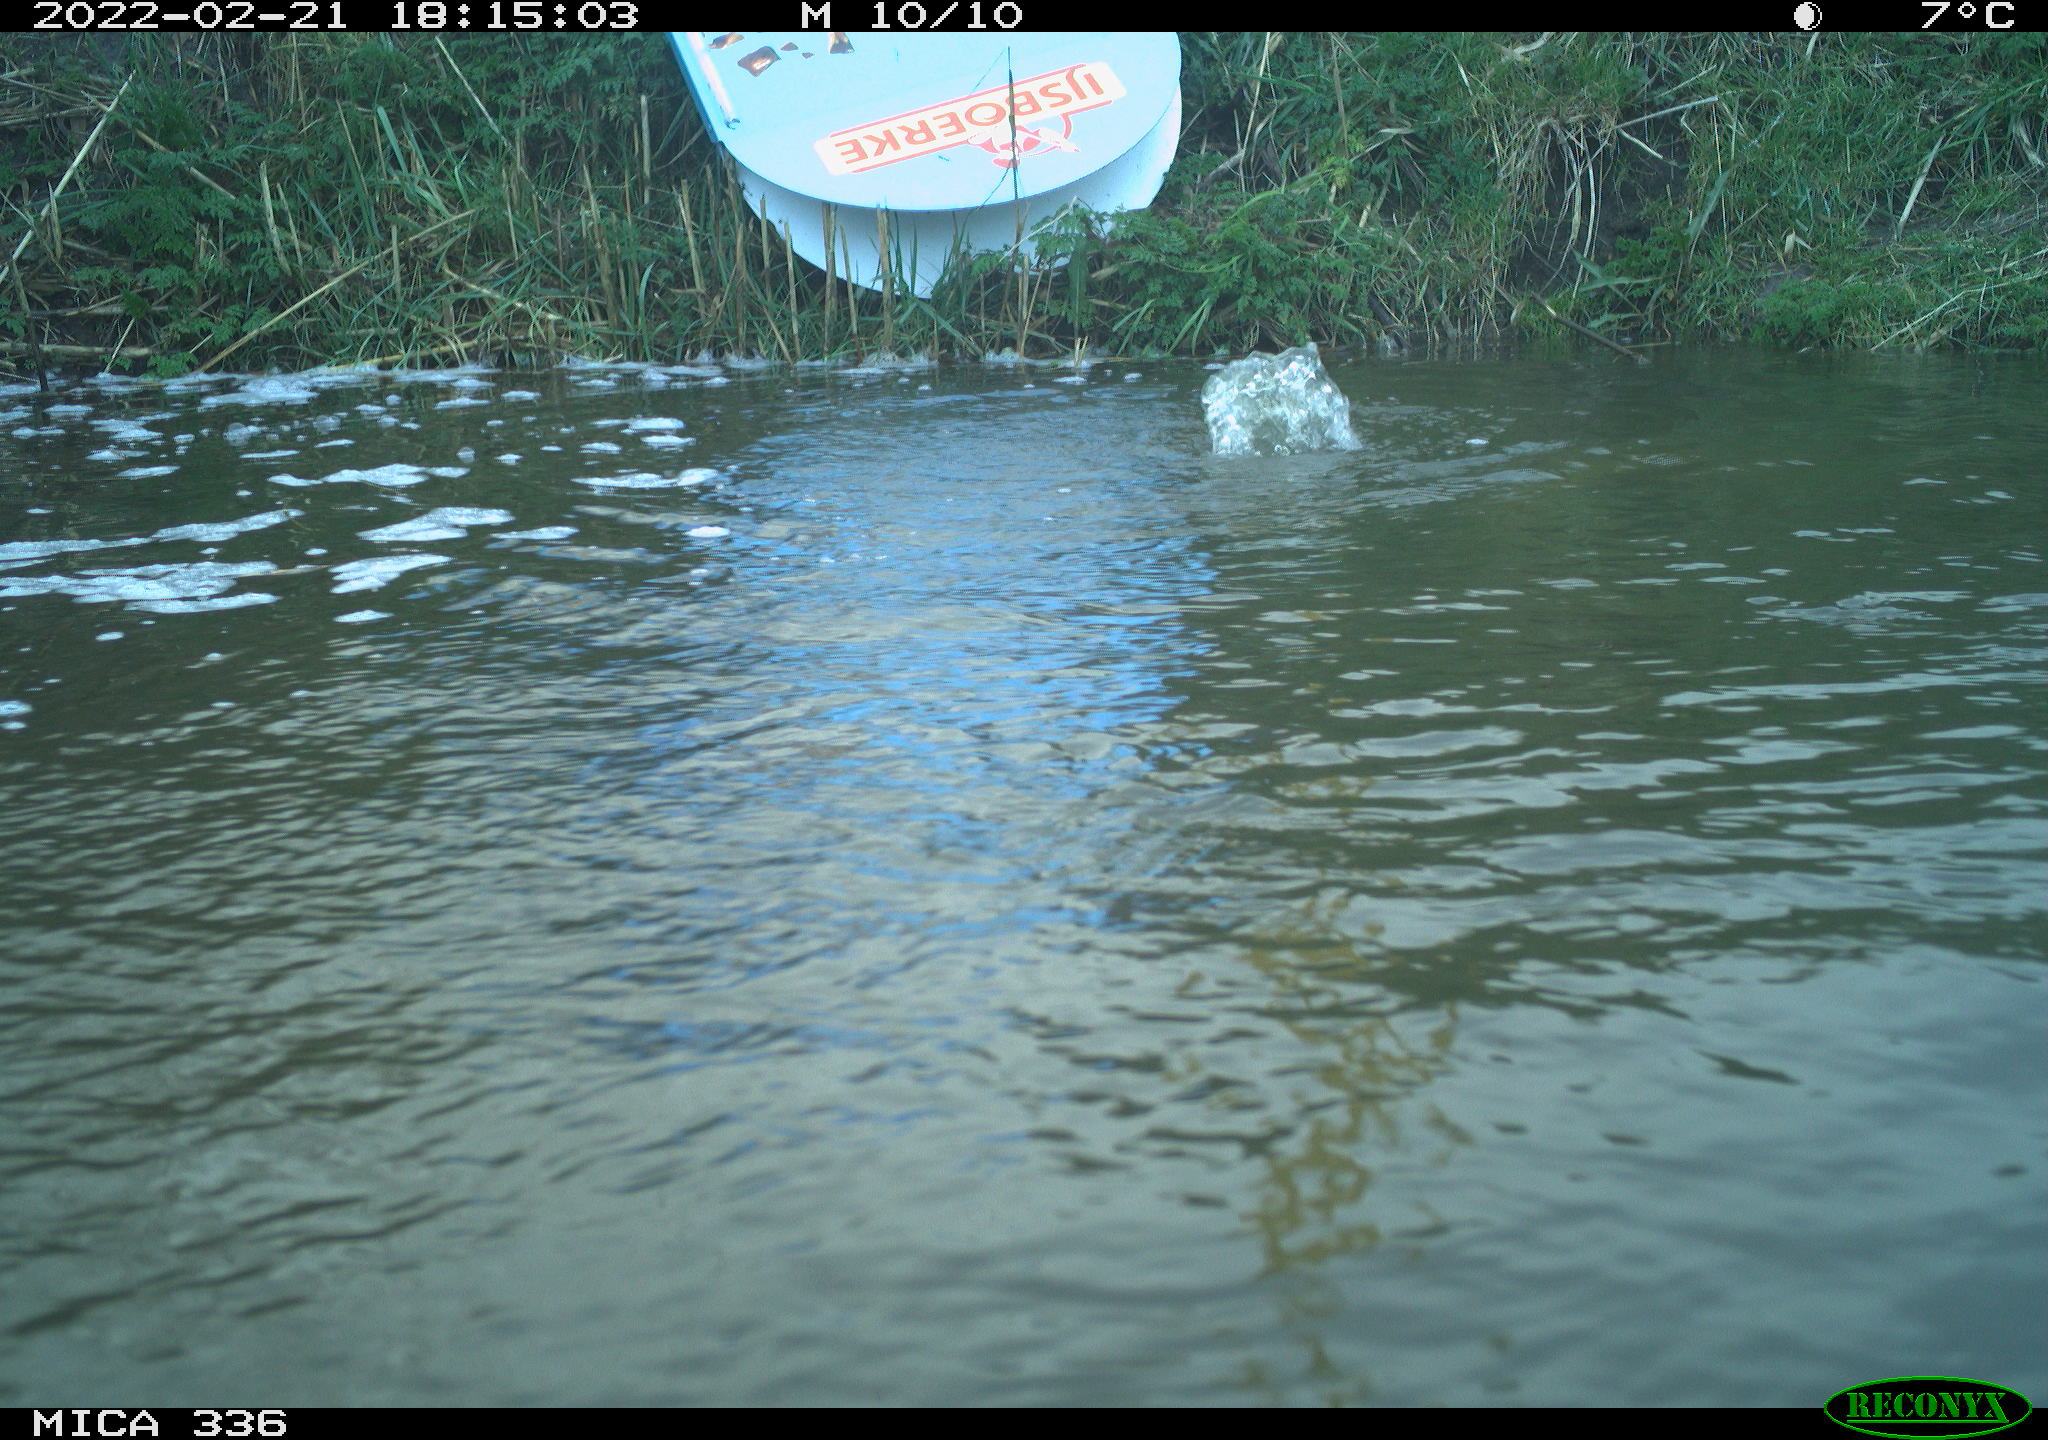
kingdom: Animalia
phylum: Chordata
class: Aves
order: Podicipediformes
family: Podicipedidae
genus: Podiceps
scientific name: Podiceps cristatus
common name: Great crested grebe
